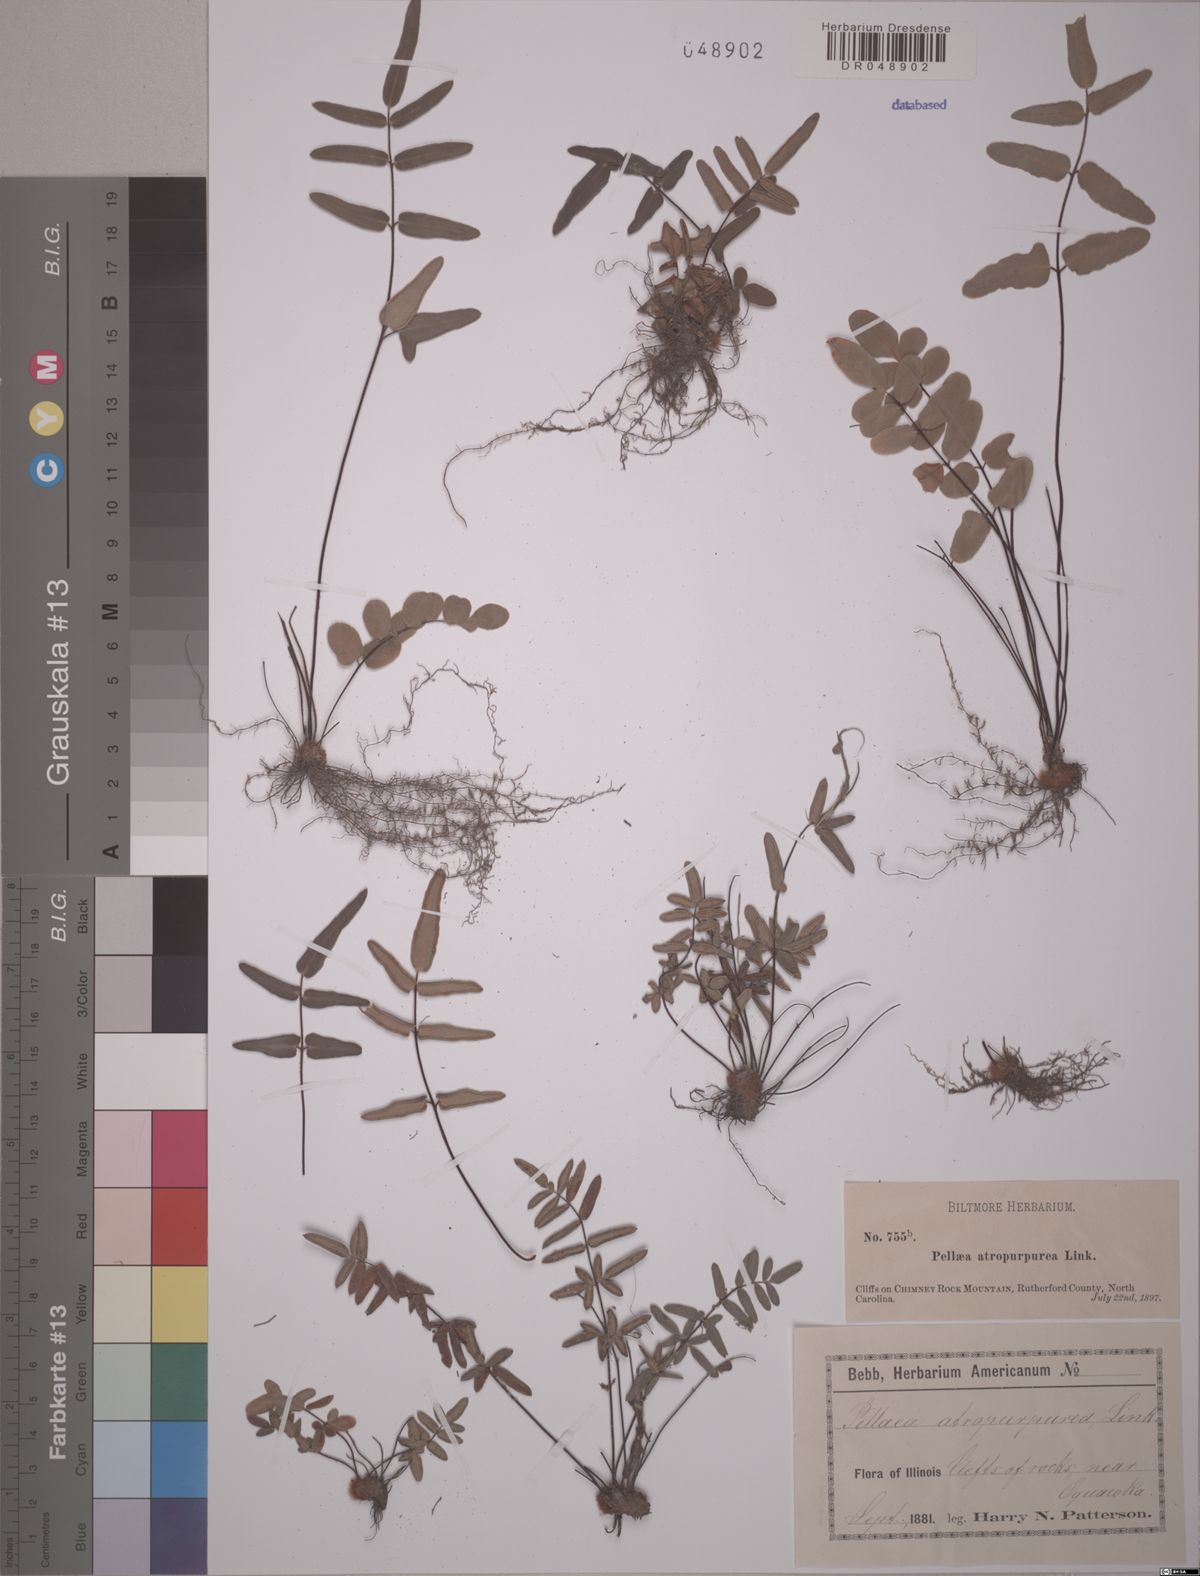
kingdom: Plantae
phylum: Tracheophyta
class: Polypodiopsida
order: Polypodiales
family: Pteridaceae
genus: Pellaea
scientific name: Pellaea atropurpurea
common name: Hairy cliffbrake
